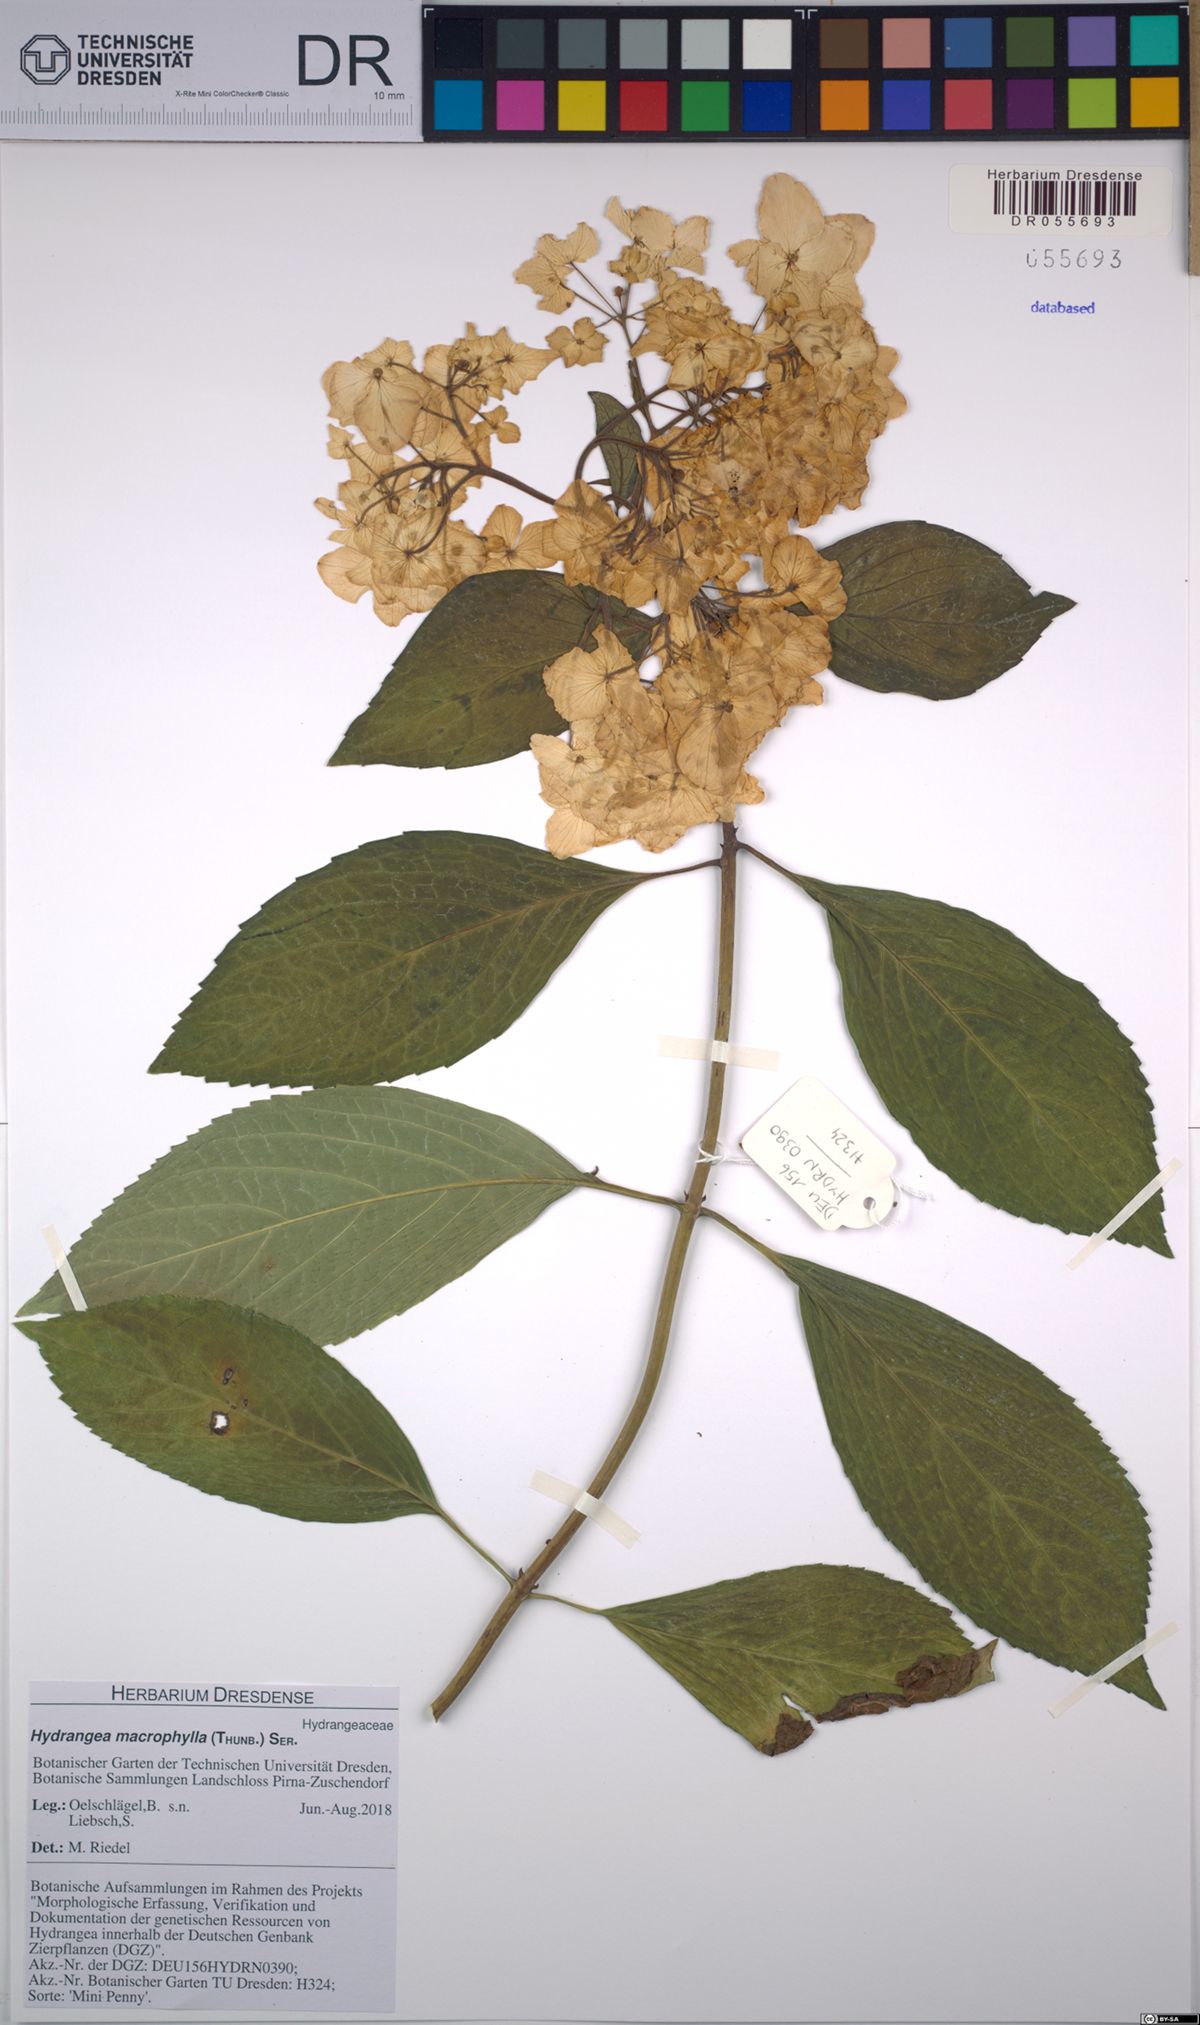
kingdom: Plantae
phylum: Tracheophyta
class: Magnoliopsida
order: Cornales
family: Hydrangeaceae
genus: Hydrangea
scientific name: Hydrangea macrophylla
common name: Hydrangea
